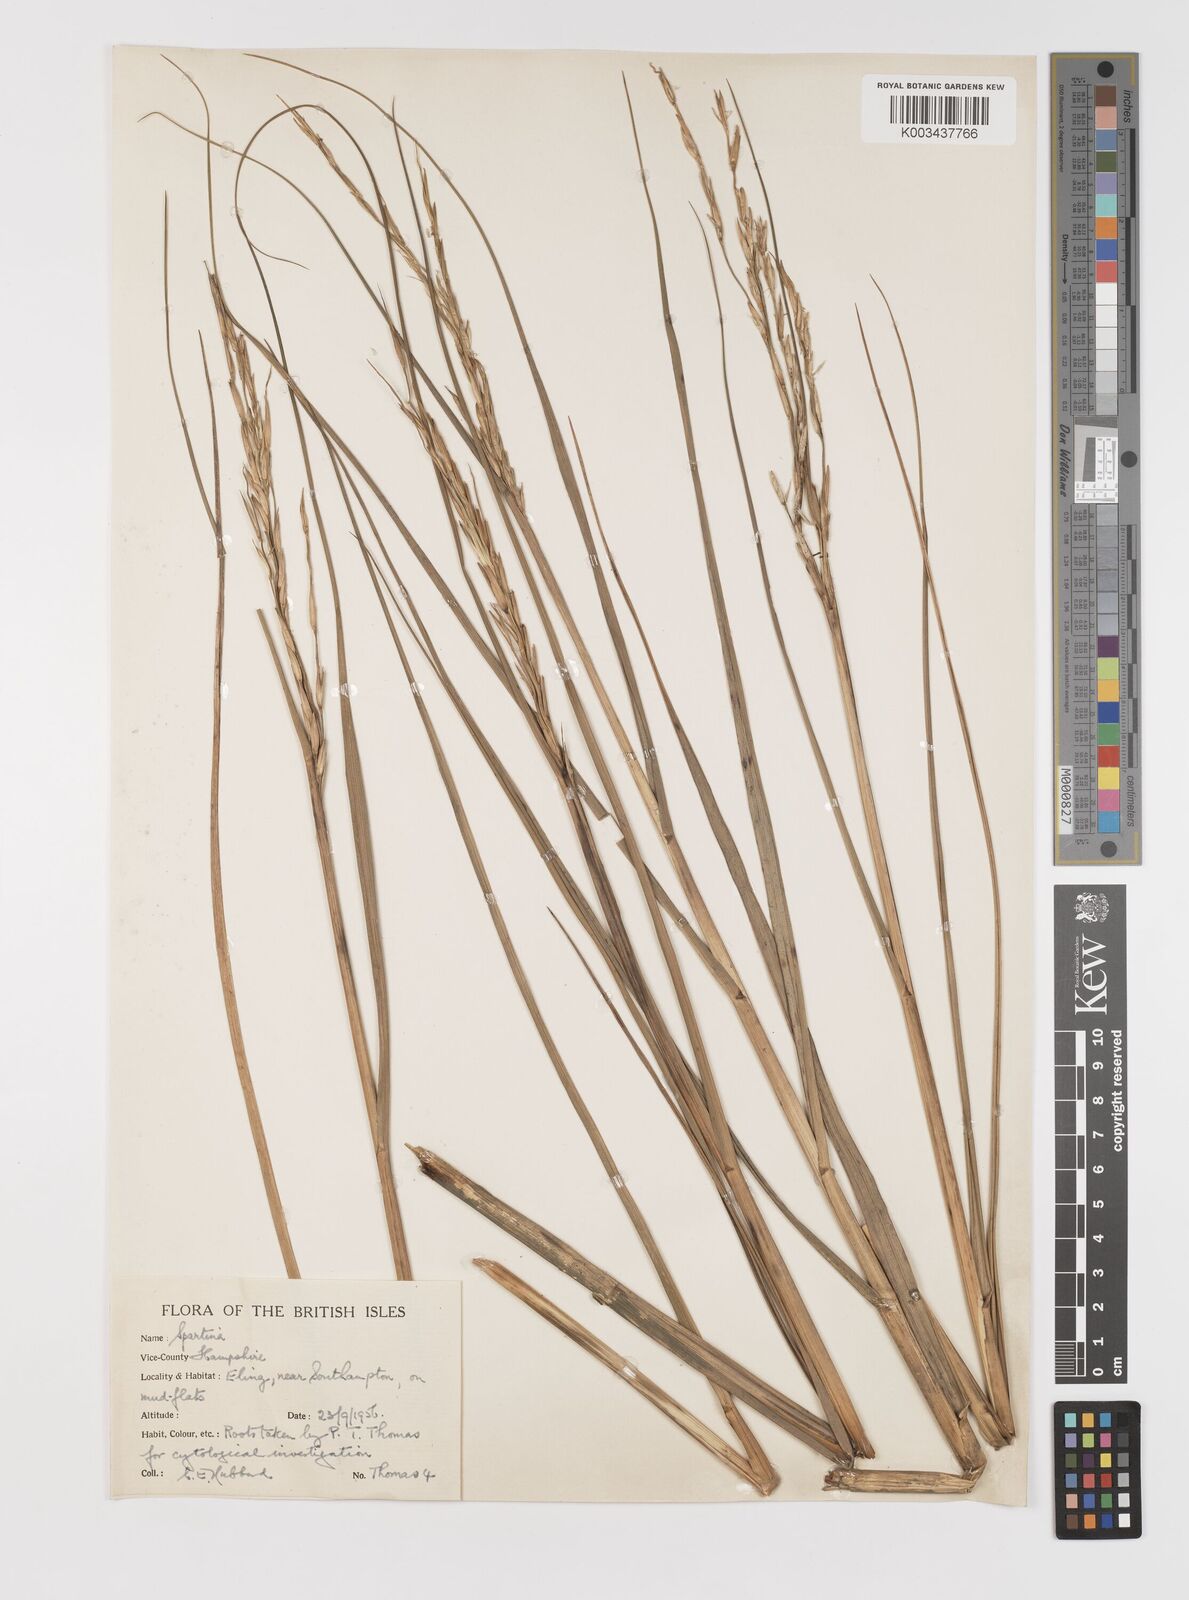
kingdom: Plantae
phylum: Tracheophyta
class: Liliopsida
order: Poales
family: Poaceae
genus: Sporobolus
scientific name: Sporobolus alterniflorus
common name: Atlantic cordgrass
